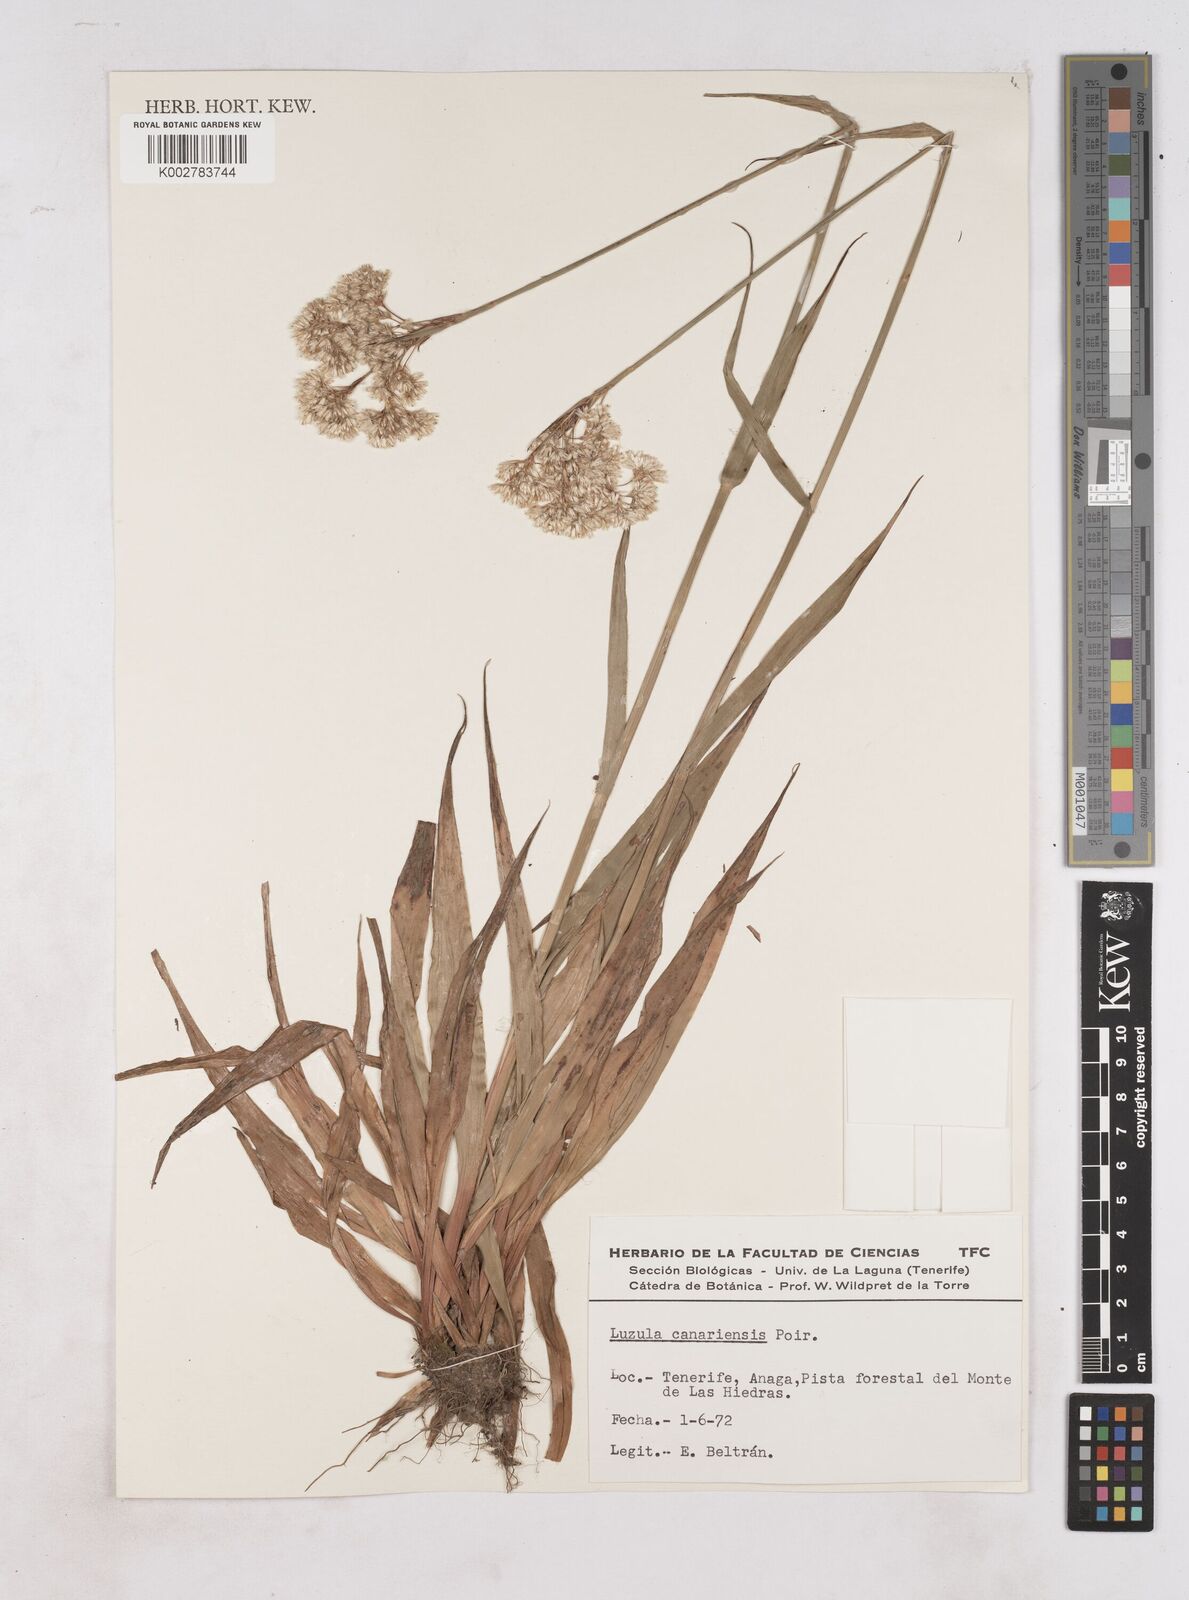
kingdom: Plantae
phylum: Tracheophyta
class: Liliopsida
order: Poales
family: Juncaceae
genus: Luzula
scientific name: Luzula canariensis
